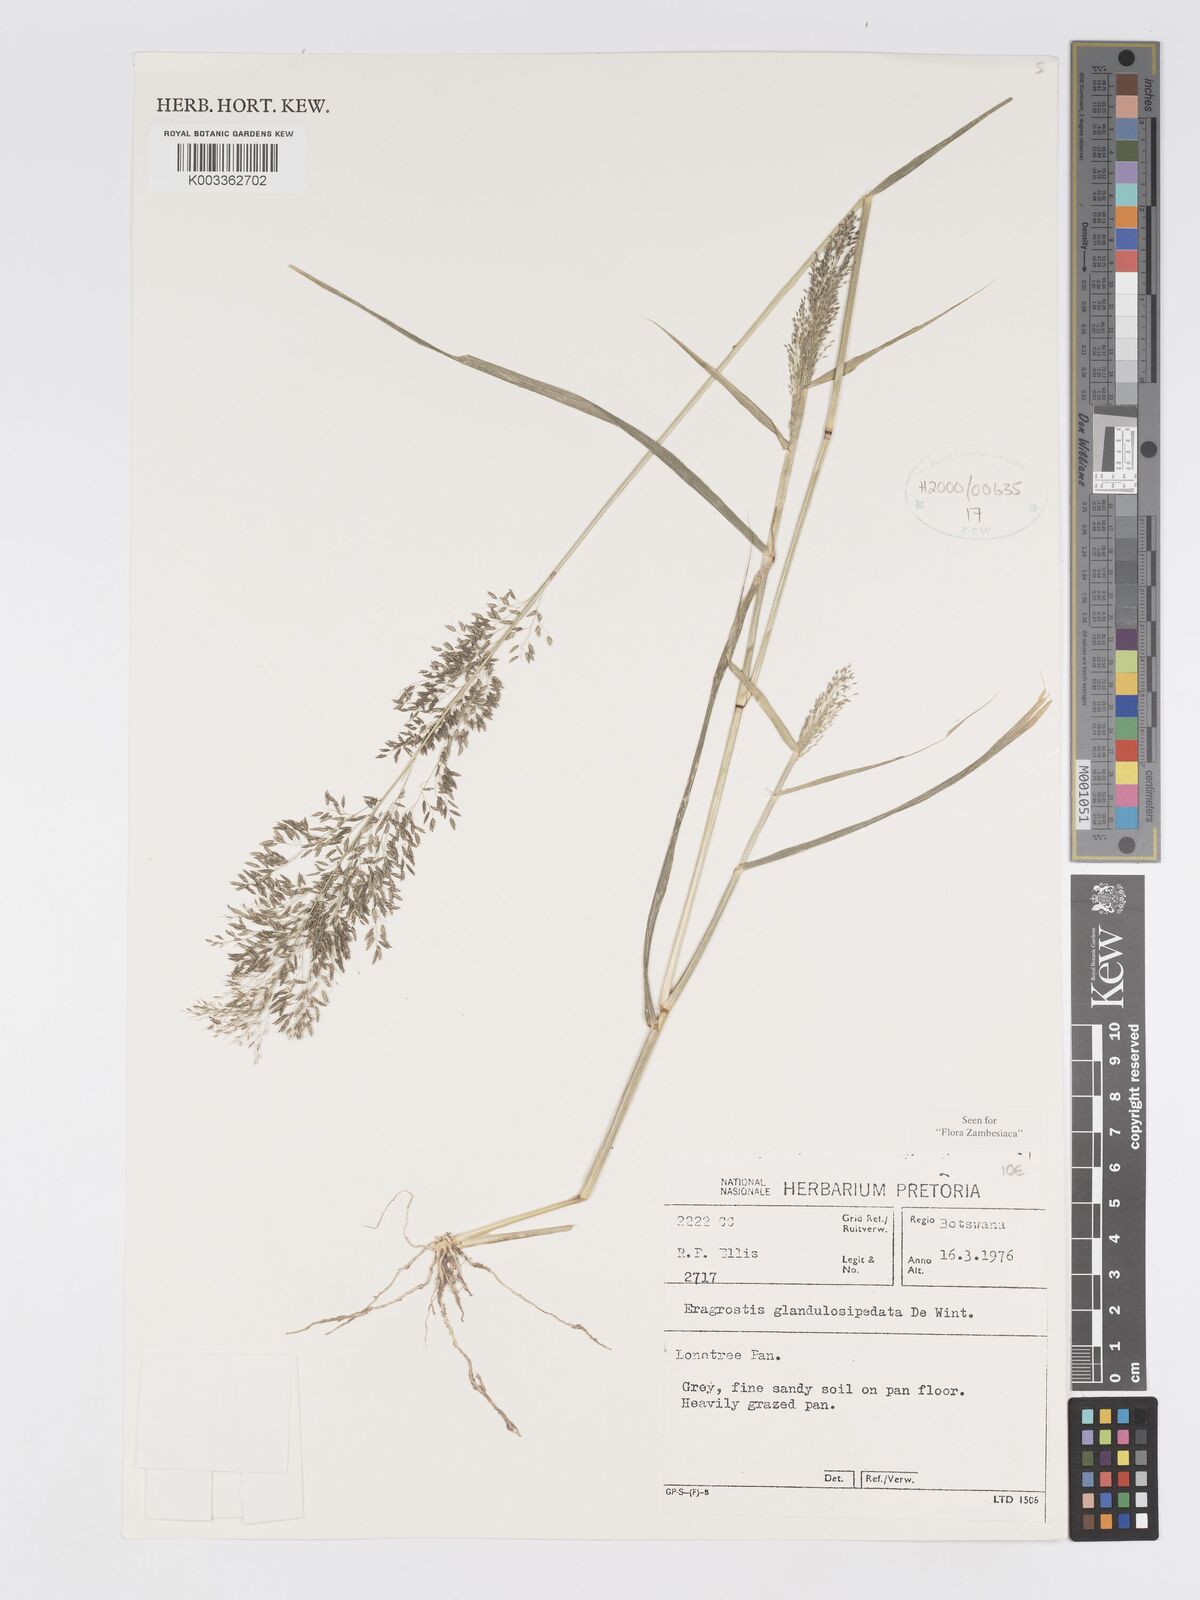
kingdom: Plantae
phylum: Tracheophyta
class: Liliopsida
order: Poales
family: Poaceae
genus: Eragrostis
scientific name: Eragrostis glandulosipedata
